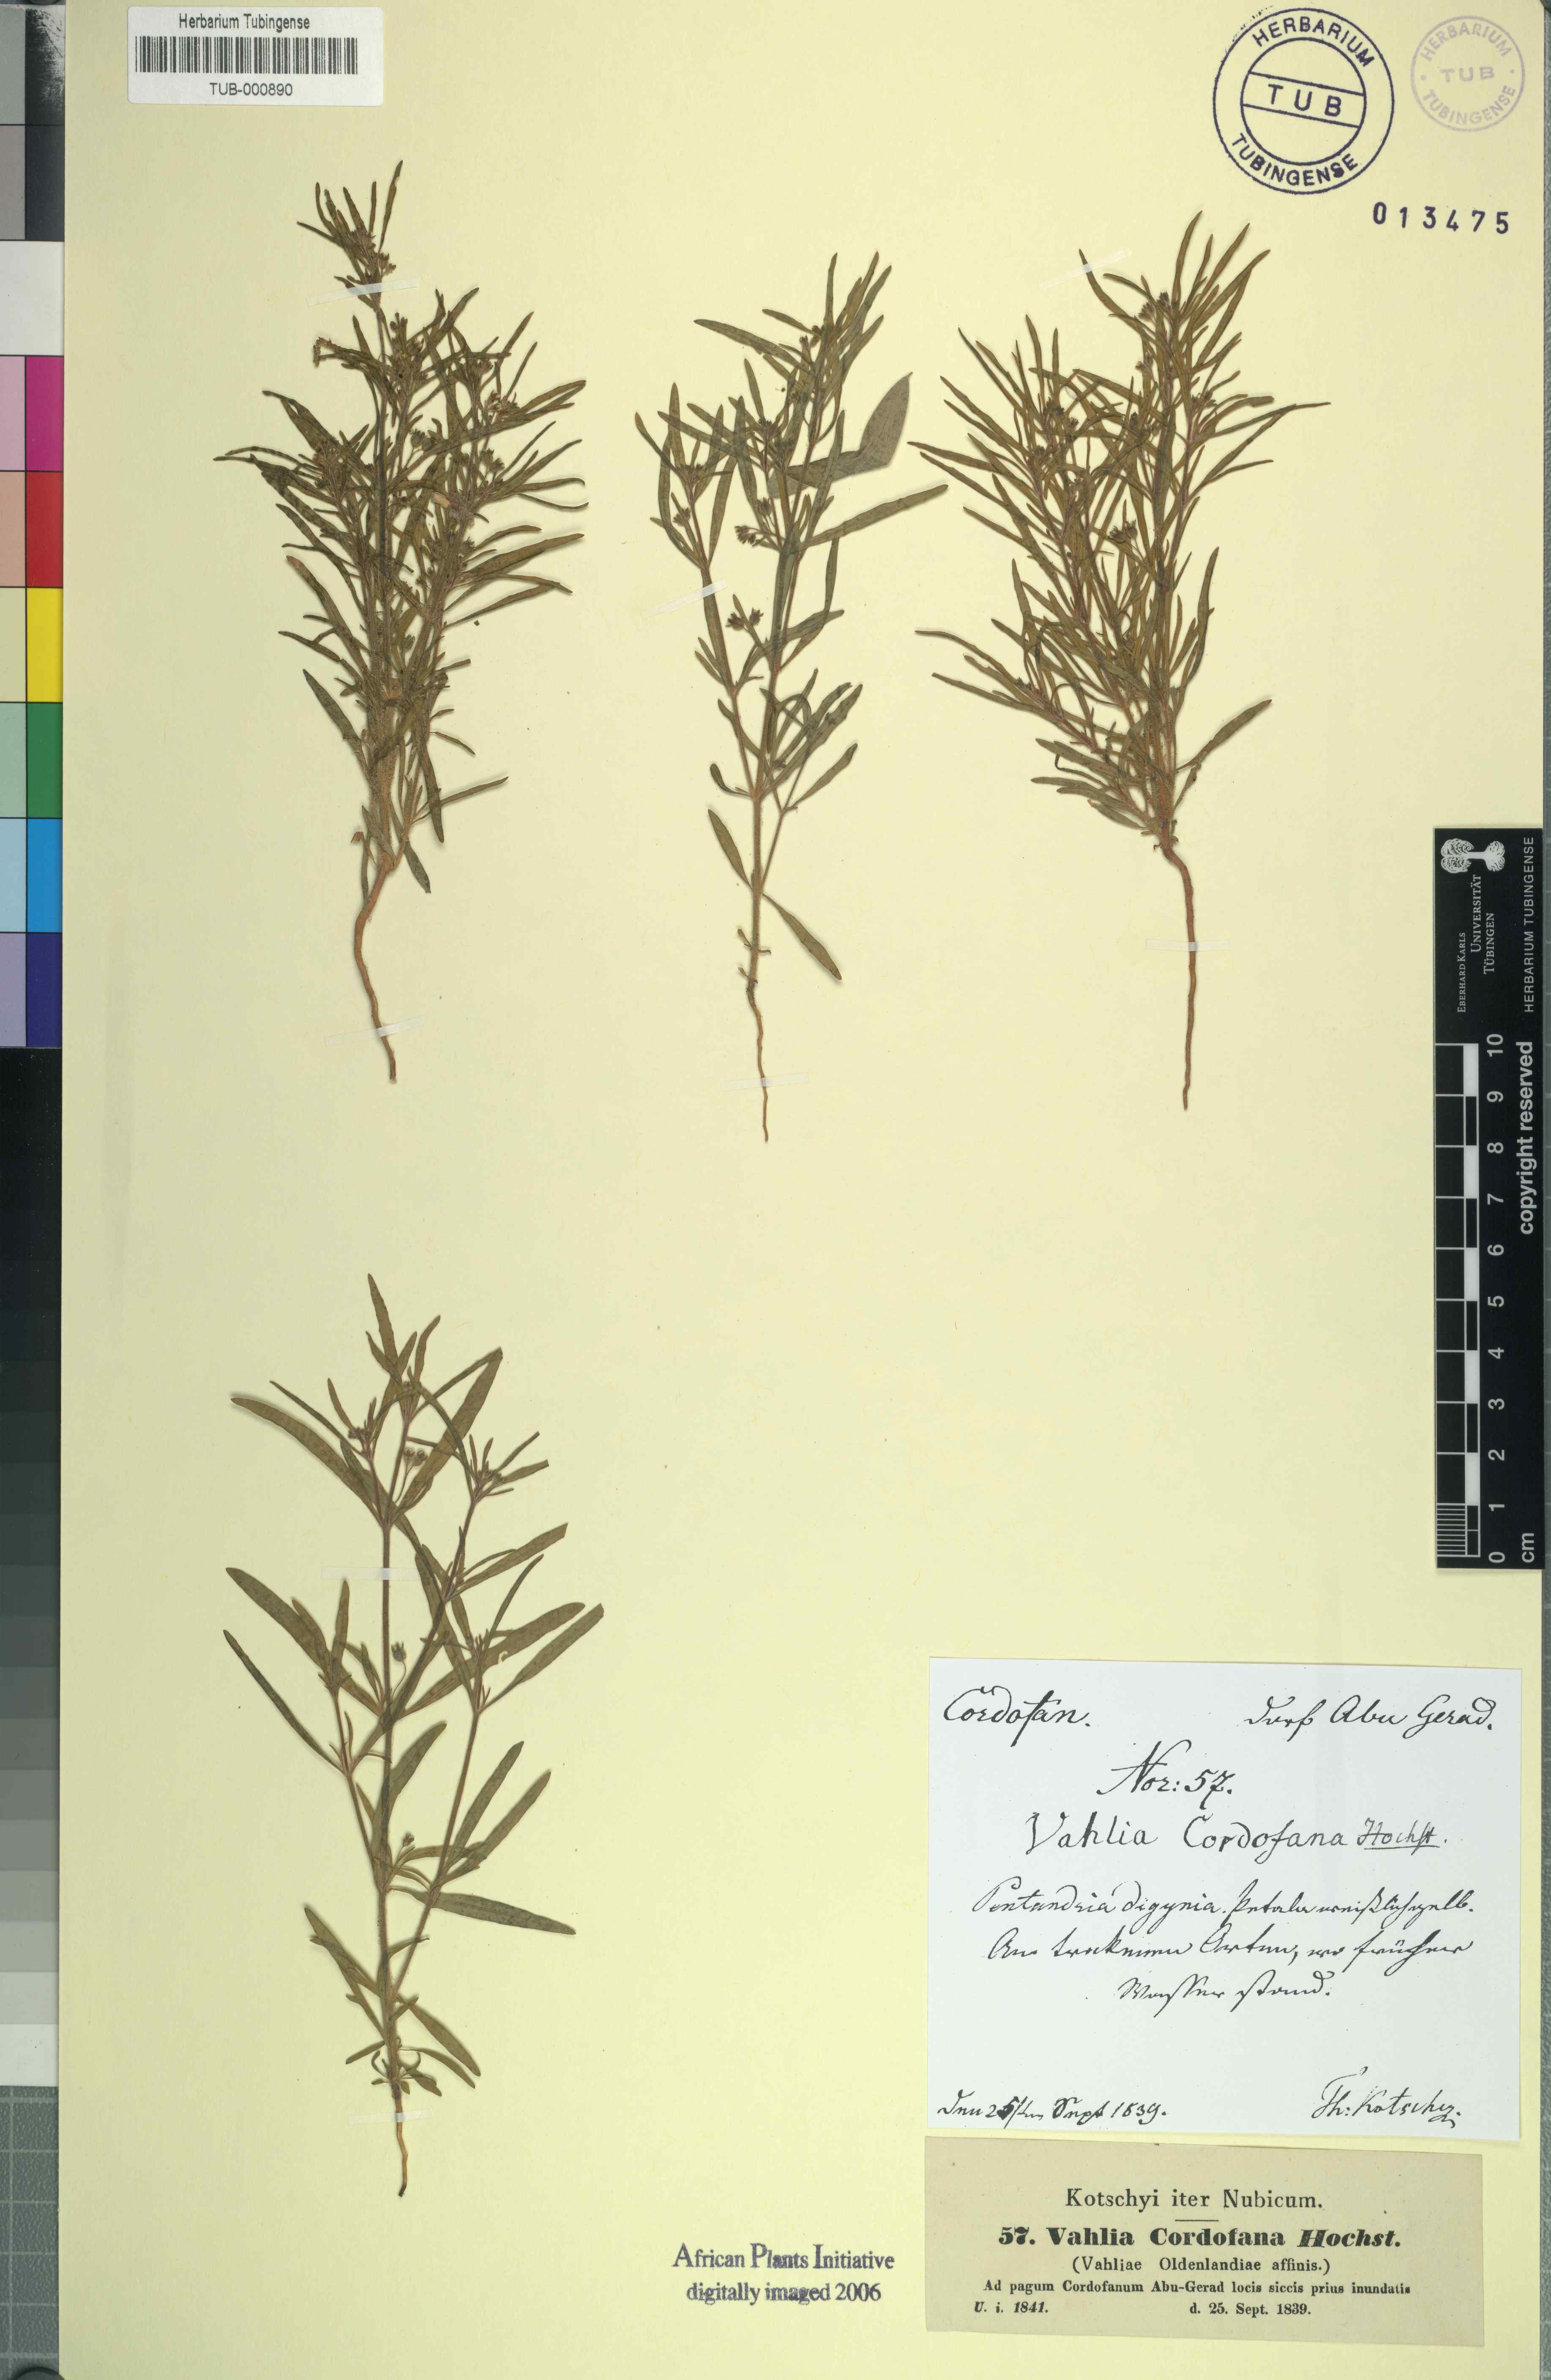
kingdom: Plantae
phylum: Tracheophyta
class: Magnoliopsida
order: Vahliales
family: Vahliaceae
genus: Vahlia
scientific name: Vahlia
